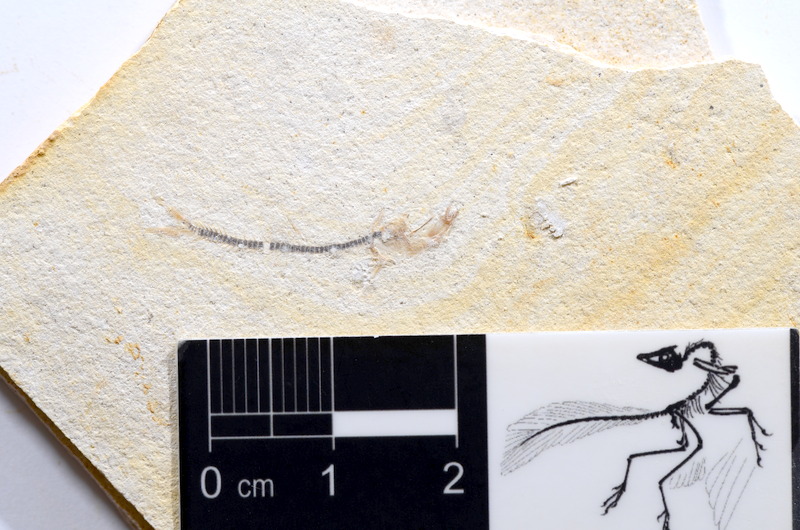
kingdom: Animalia
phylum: Chordata
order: Salmoniformes
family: Orthogonikleithridae
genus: Orthogonikleithrus
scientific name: Orthogonikleithrus hoelli
